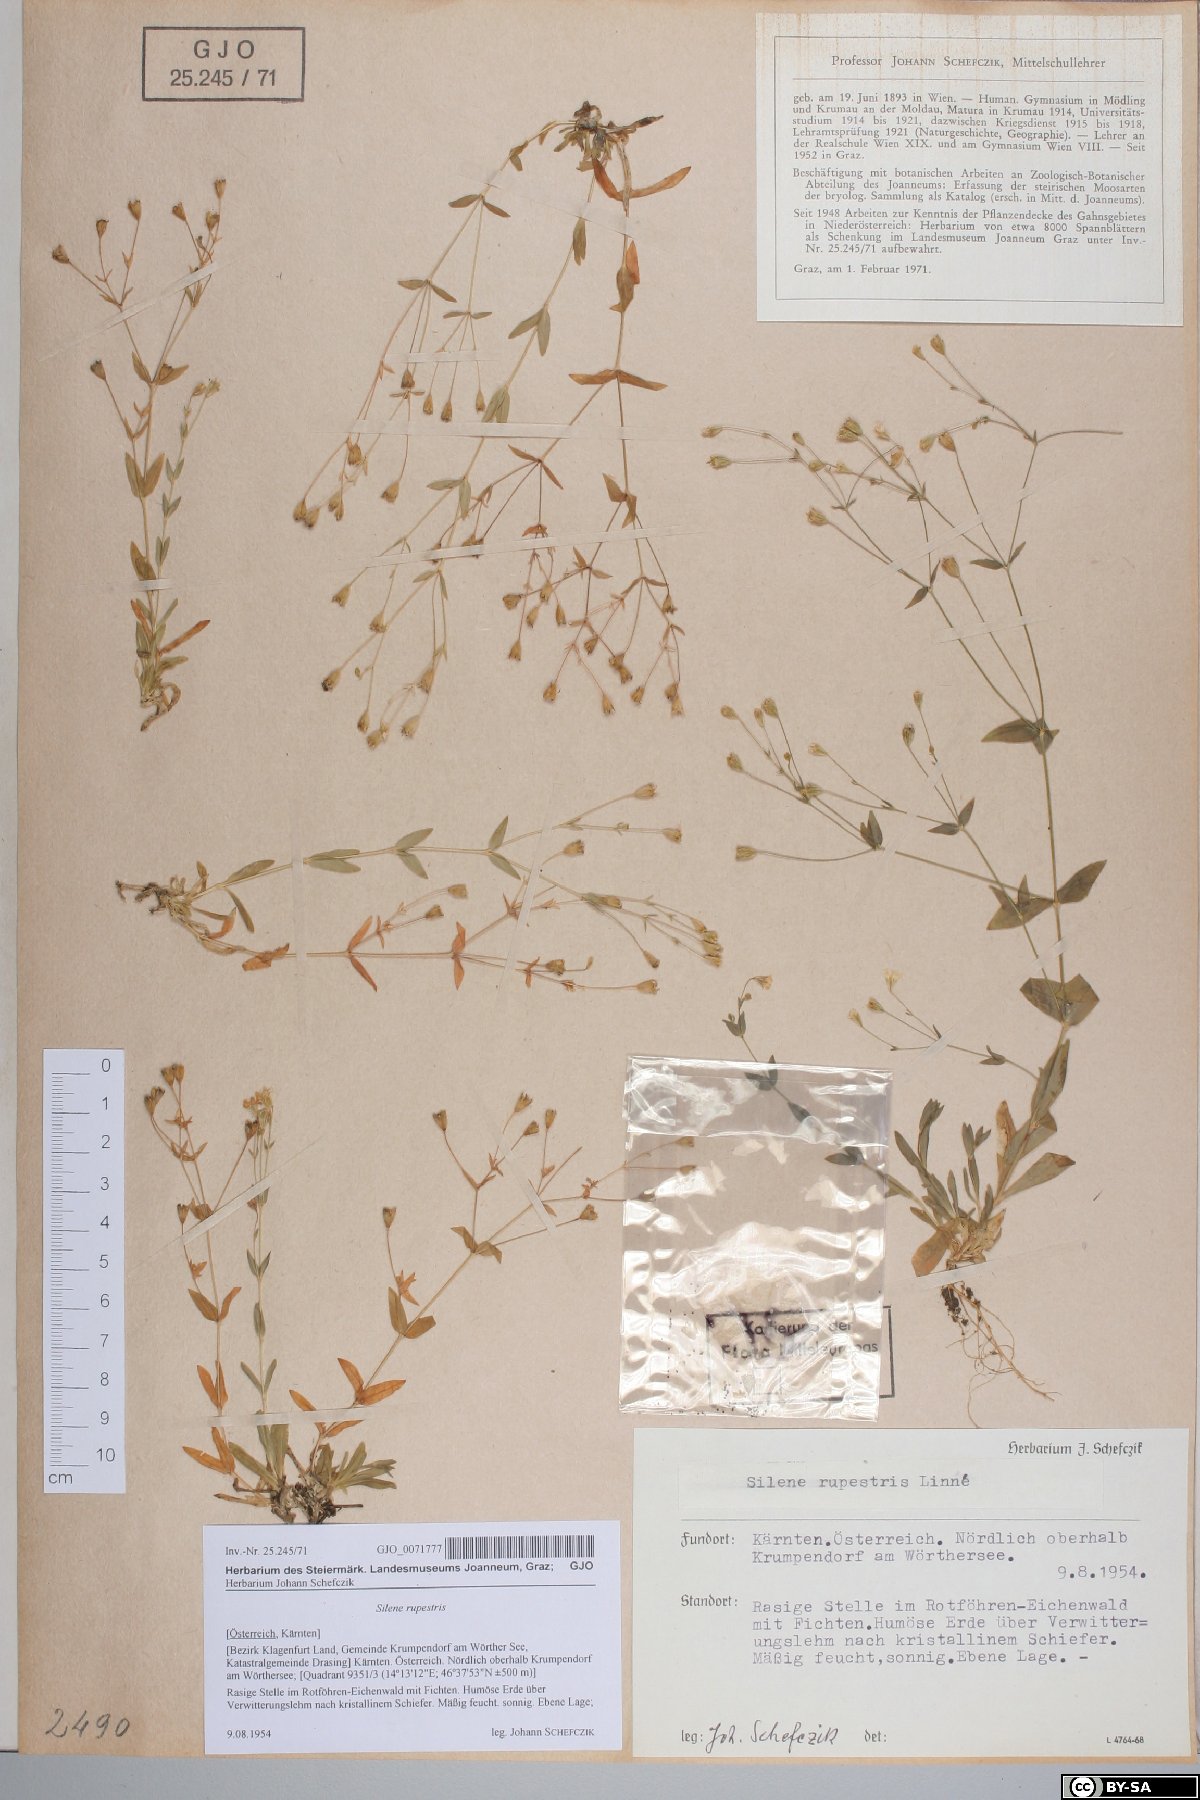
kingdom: Plantae
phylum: Tracheophyta
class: Magnoliopsida
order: Caryophyllales
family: Caryophyllaceae
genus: Atocion
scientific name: Atocion rupestre
